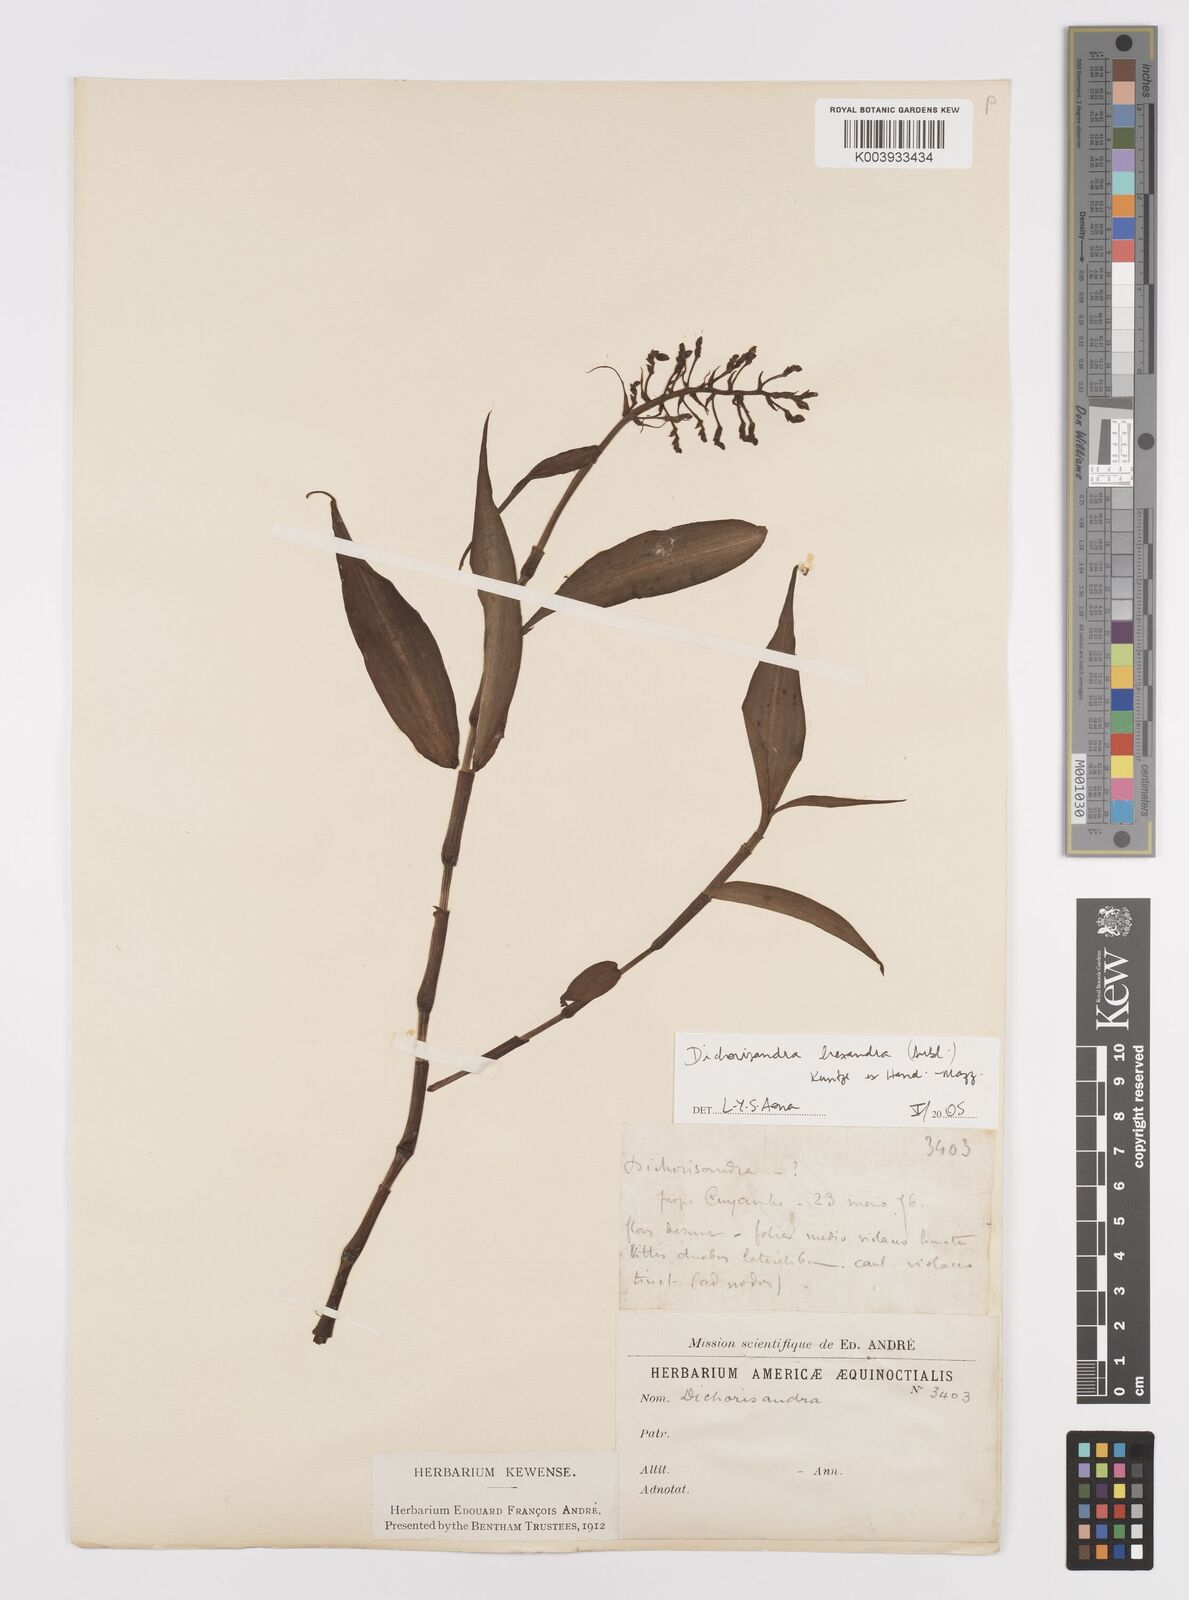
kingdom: Plantae
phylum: Tracheophyta
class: Liliopsida
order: Commelinales
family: Commelinaceae
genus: Dichorisandra
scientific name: Dichorisandra hexandra
